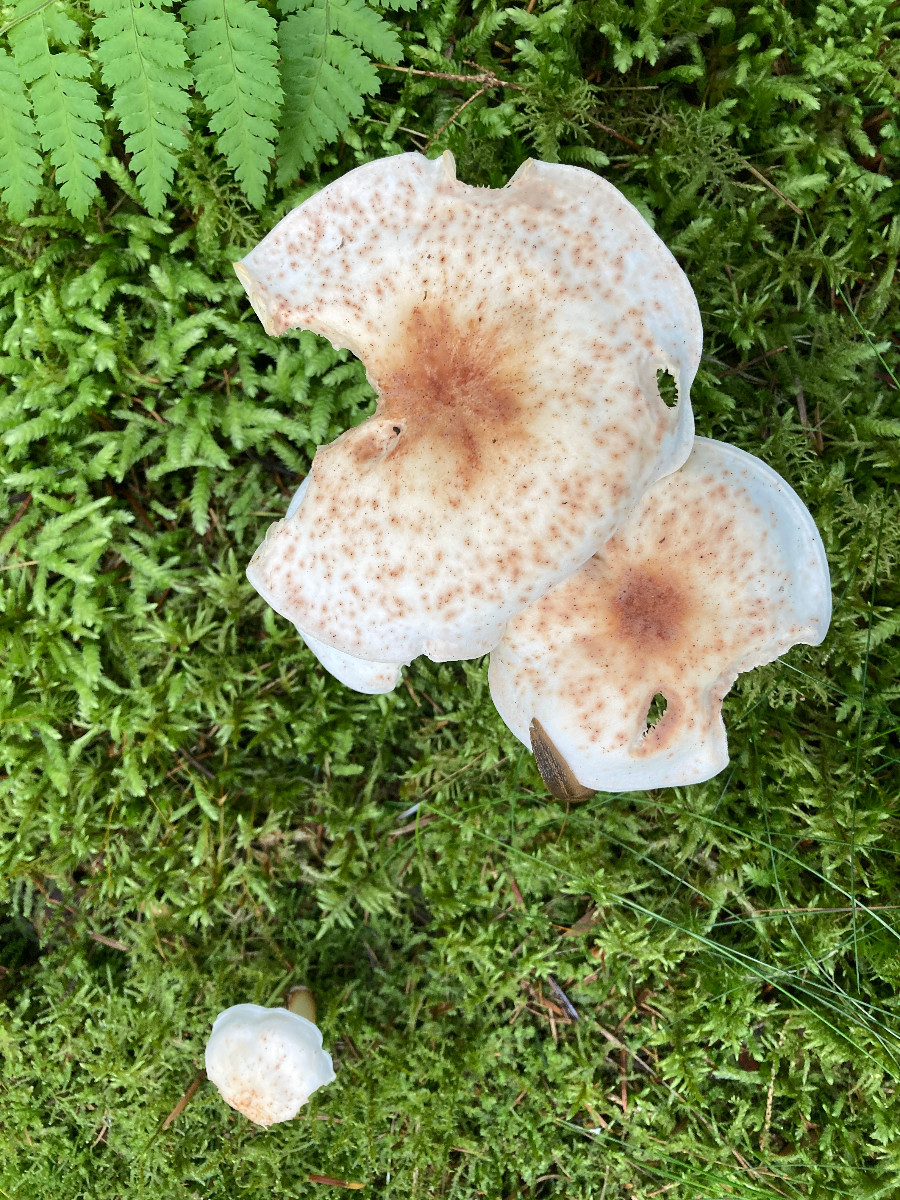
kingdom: Fungi
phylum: Basidiomycota
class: Agaricomycetes
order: Agaricales
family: Omphalotaceae
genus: Rhodocollybia
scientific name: Rhodocollybia maculata
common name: plettet fladhat
